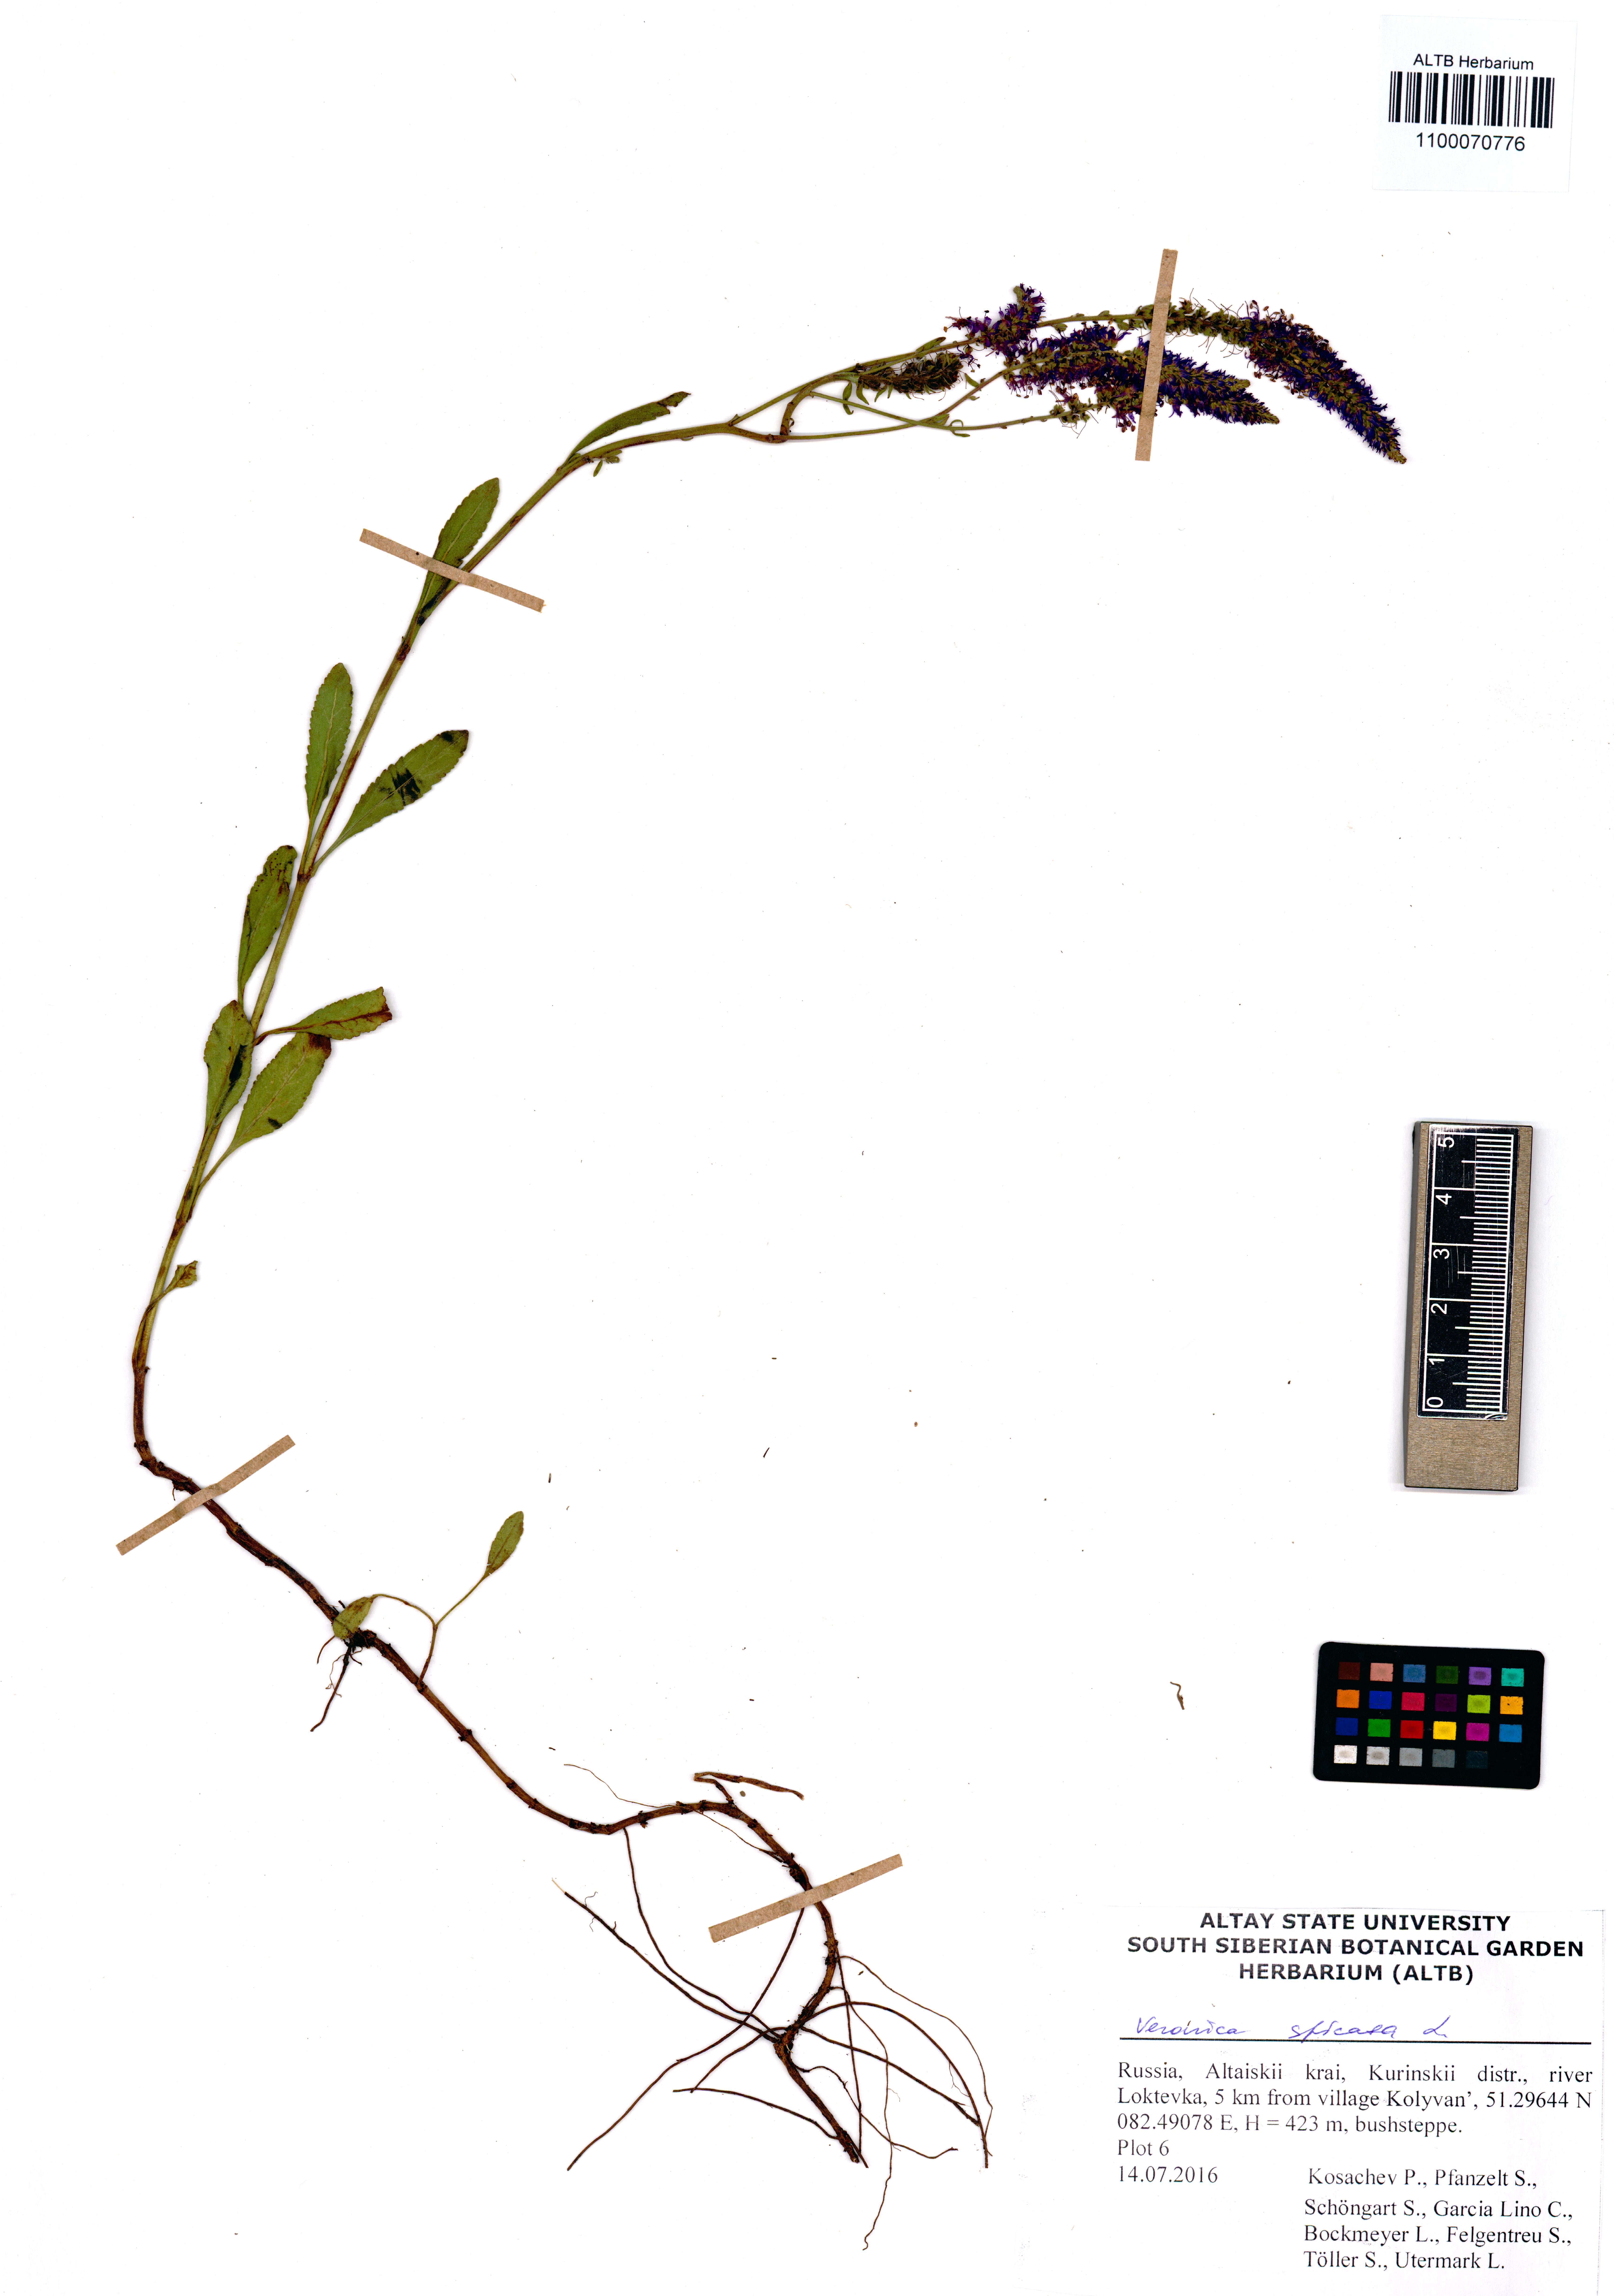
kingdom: Plantae
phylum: Tracheophyta
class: Magnoliopsida
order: Lamiales
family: Plantaginaceae
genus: Veronica
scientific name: Veronica spicata
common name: Spiked speedwell
